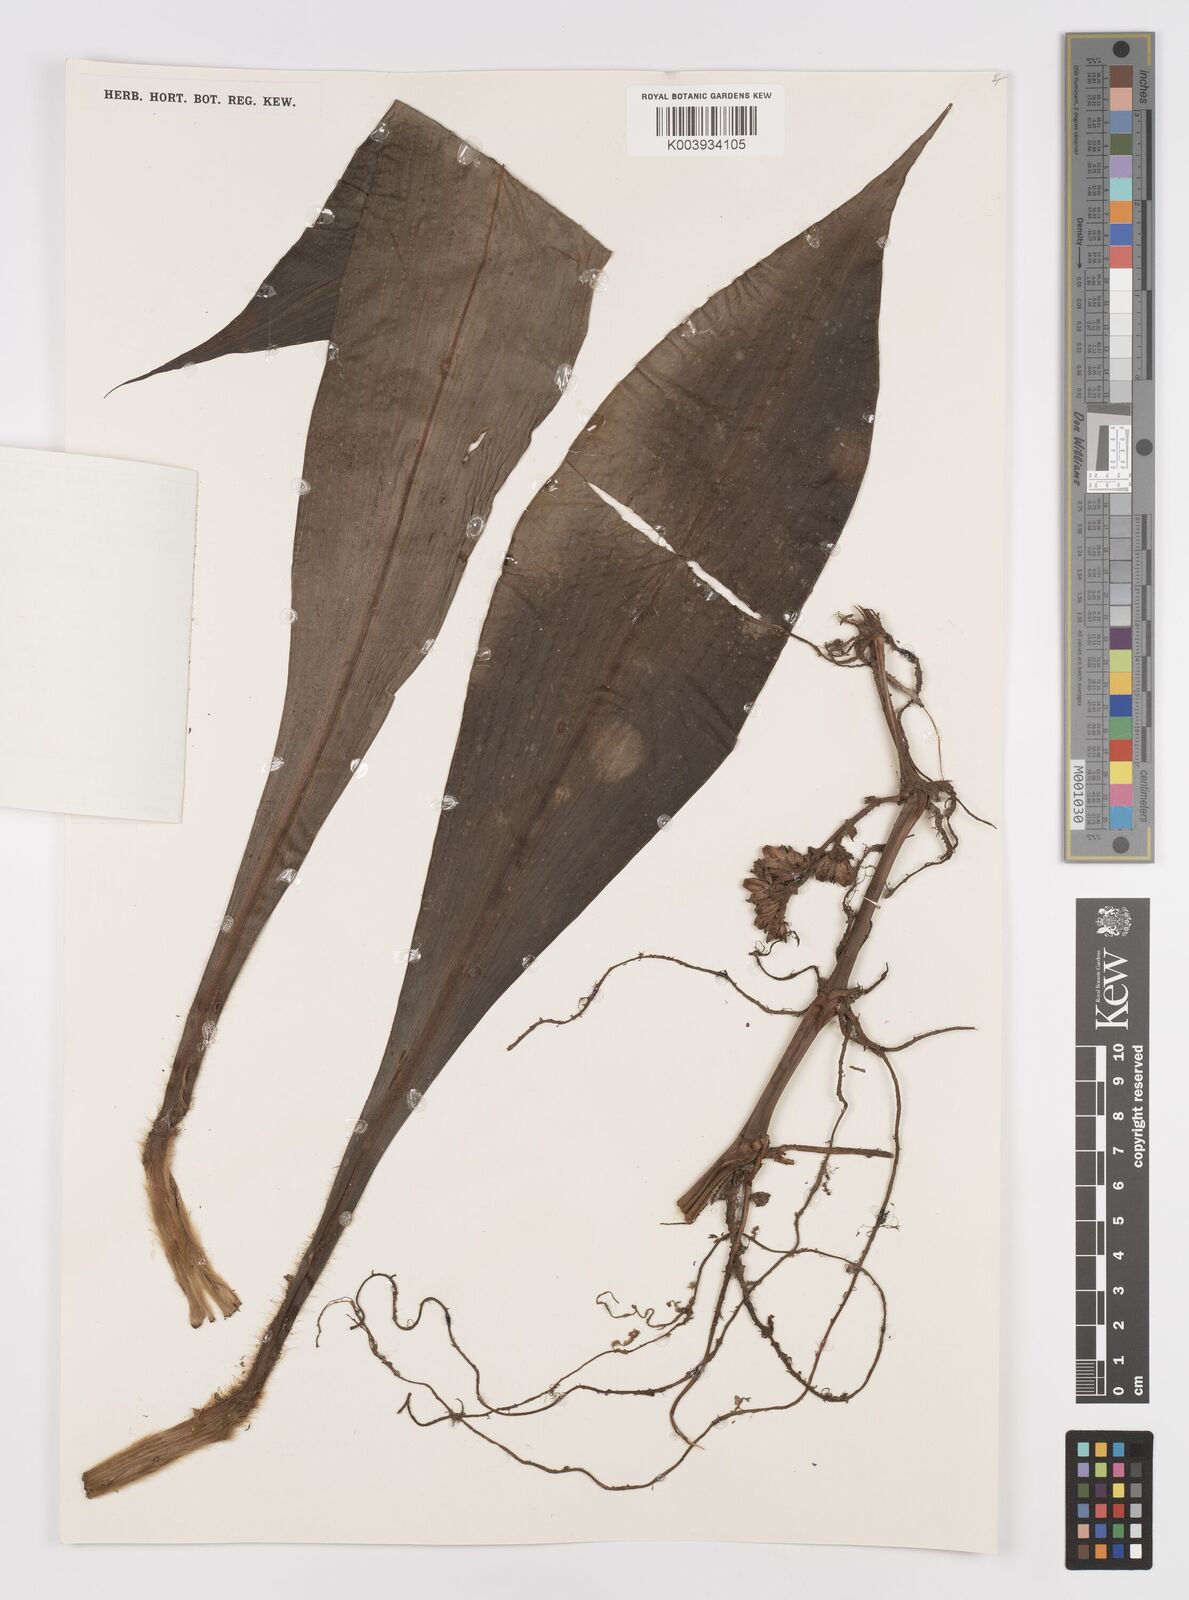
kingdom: Plantae
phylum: Tracheophyta
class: Liliopsida
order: Commelinales
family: Commelinaceae
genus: Amischotolype
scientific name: Amischotolype
